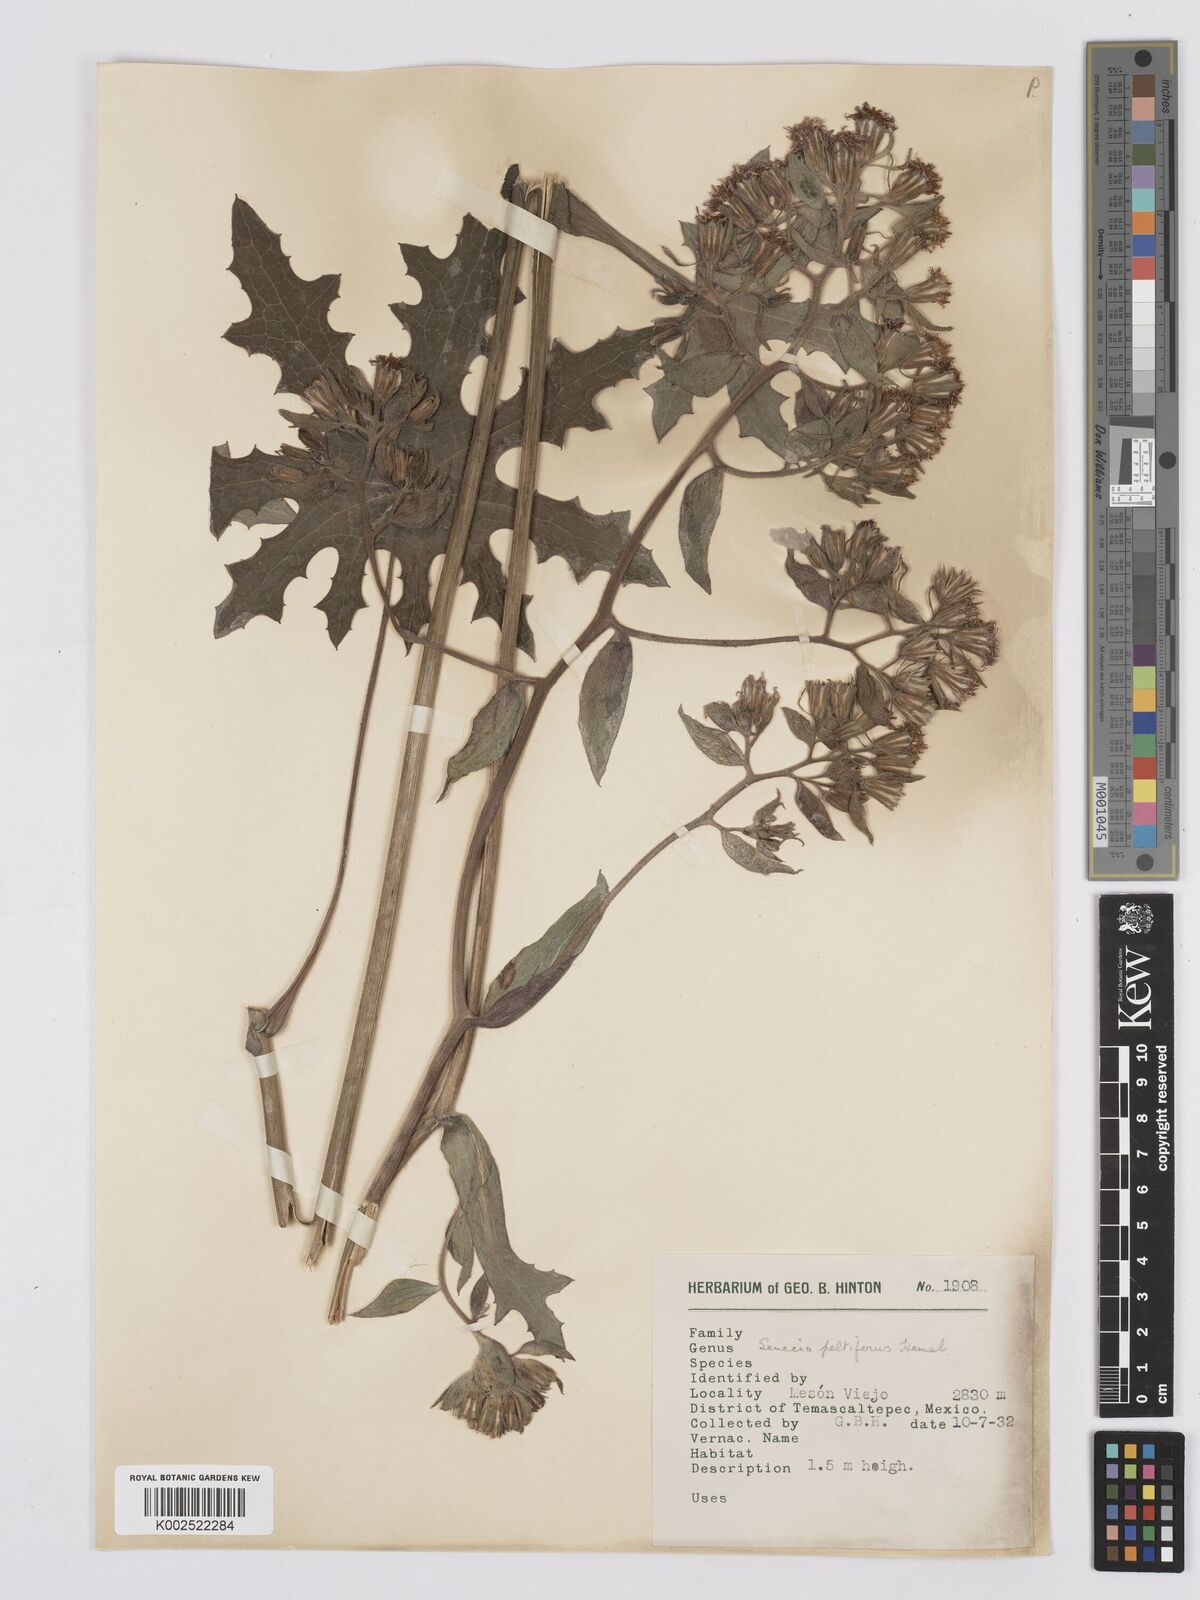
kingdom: Plantae
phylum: Tracheophyta
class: Magnoliopsida
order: Asterales
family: Asteraceae
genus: Psacalium
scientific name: Psacalium peltatum
